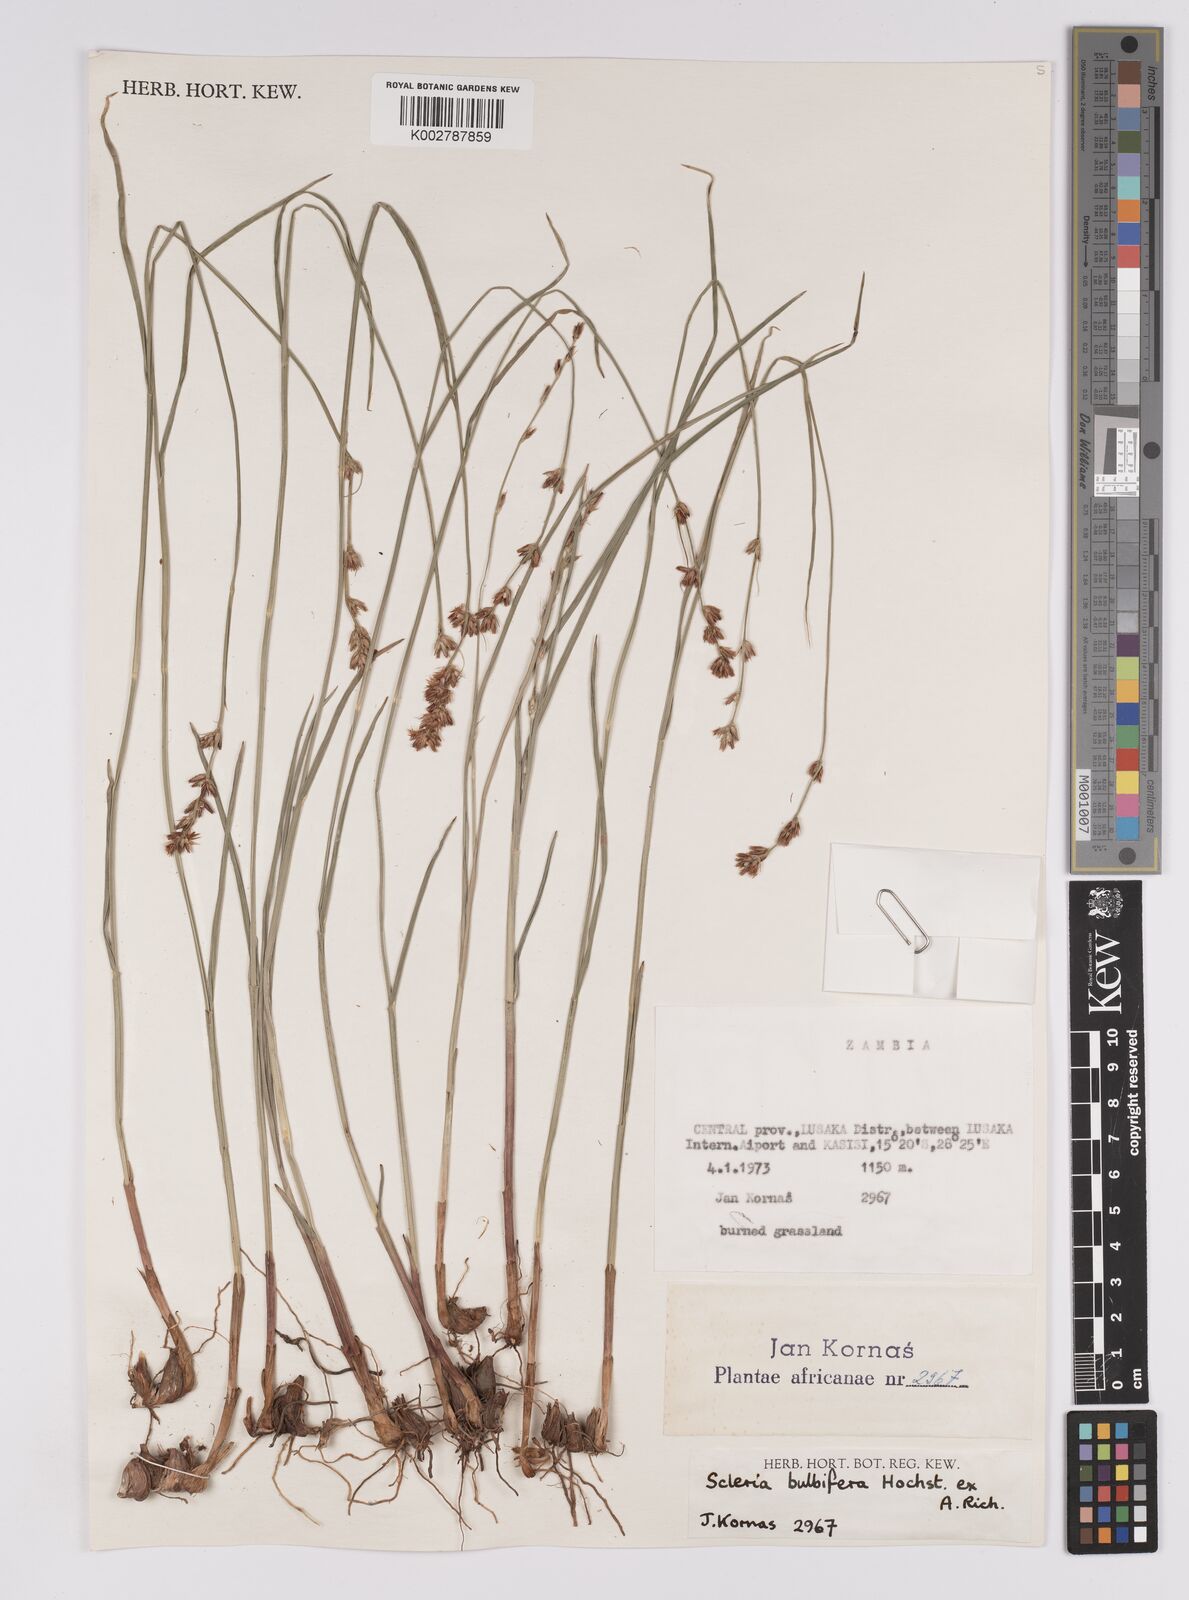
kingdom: Plantae
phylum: Tracheophyta
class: Liliopsida
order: Poales
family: Cyperaceae
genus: Scleria
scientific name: Scleria bulbifera
